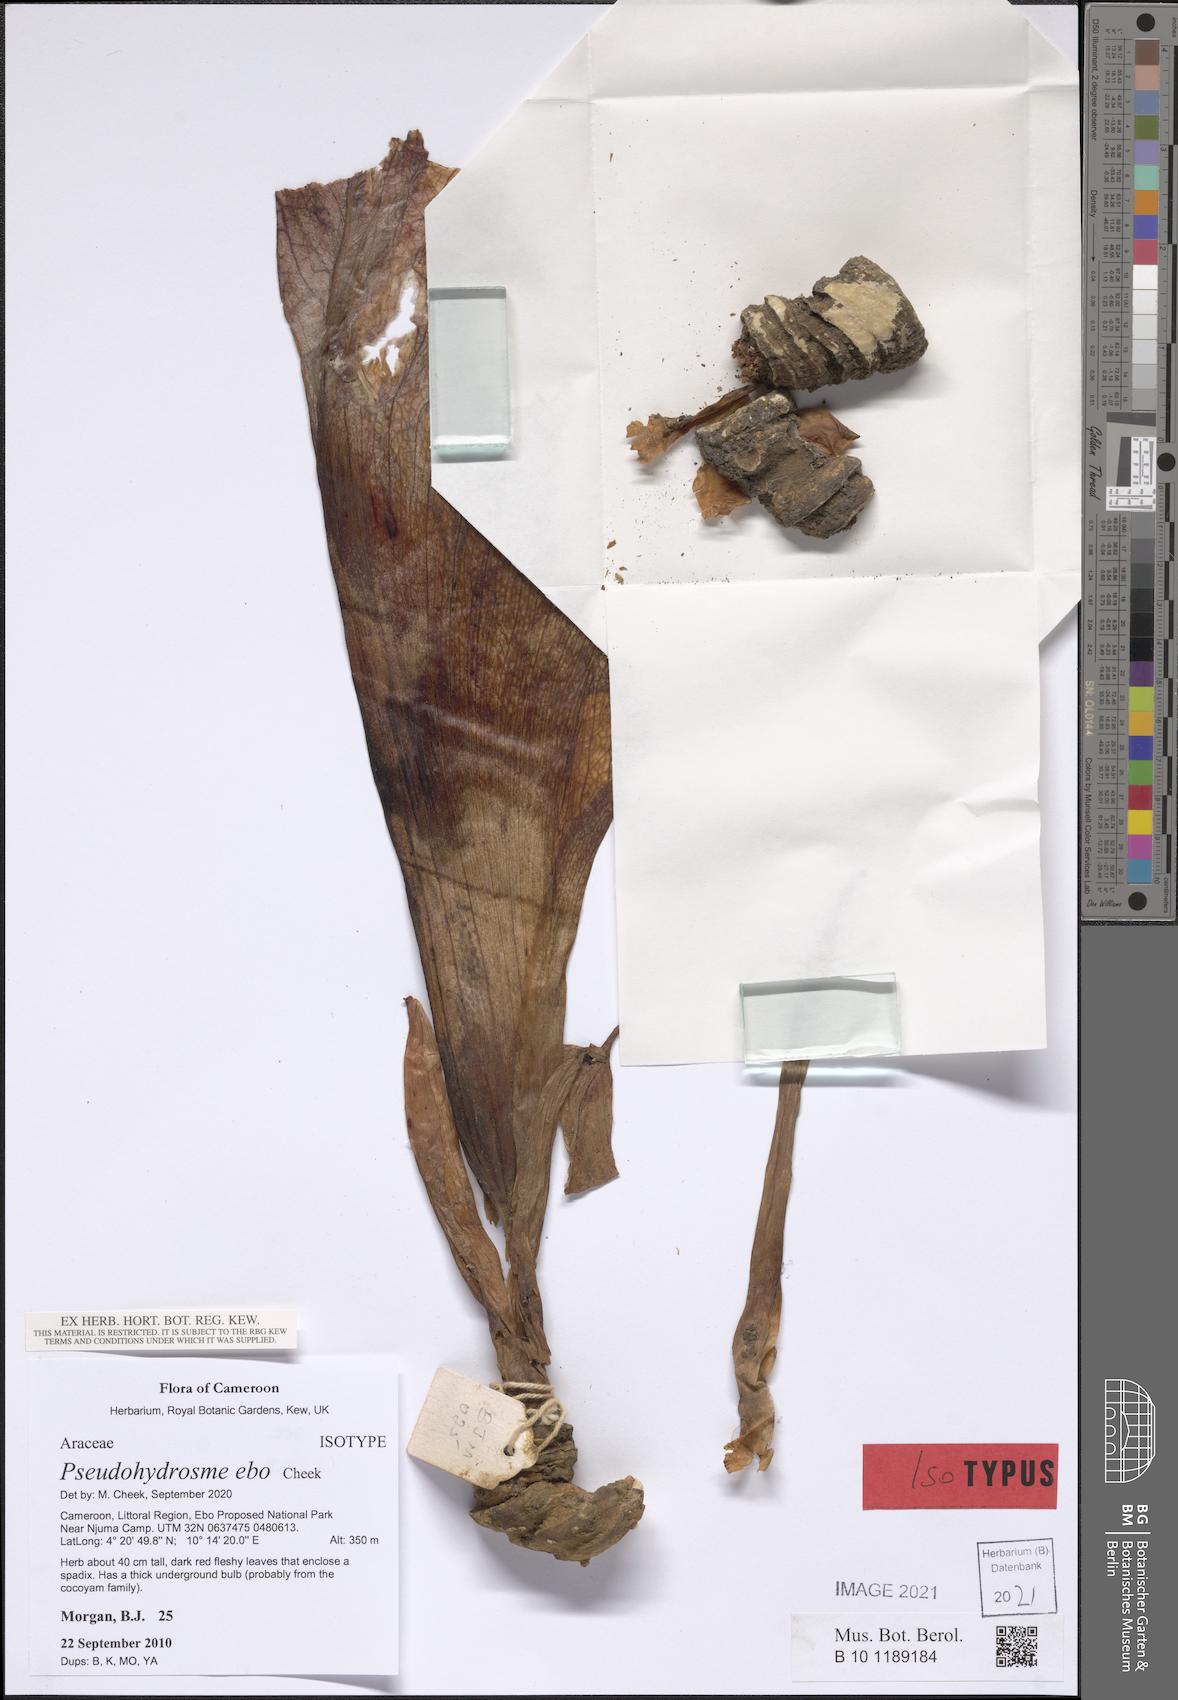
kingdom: Plantae
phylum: Tracheophyta
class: Liliopsida
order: Alismatales
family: Araceae
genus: Pseudohydrosme
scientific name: Pseudohydrosme ebo
